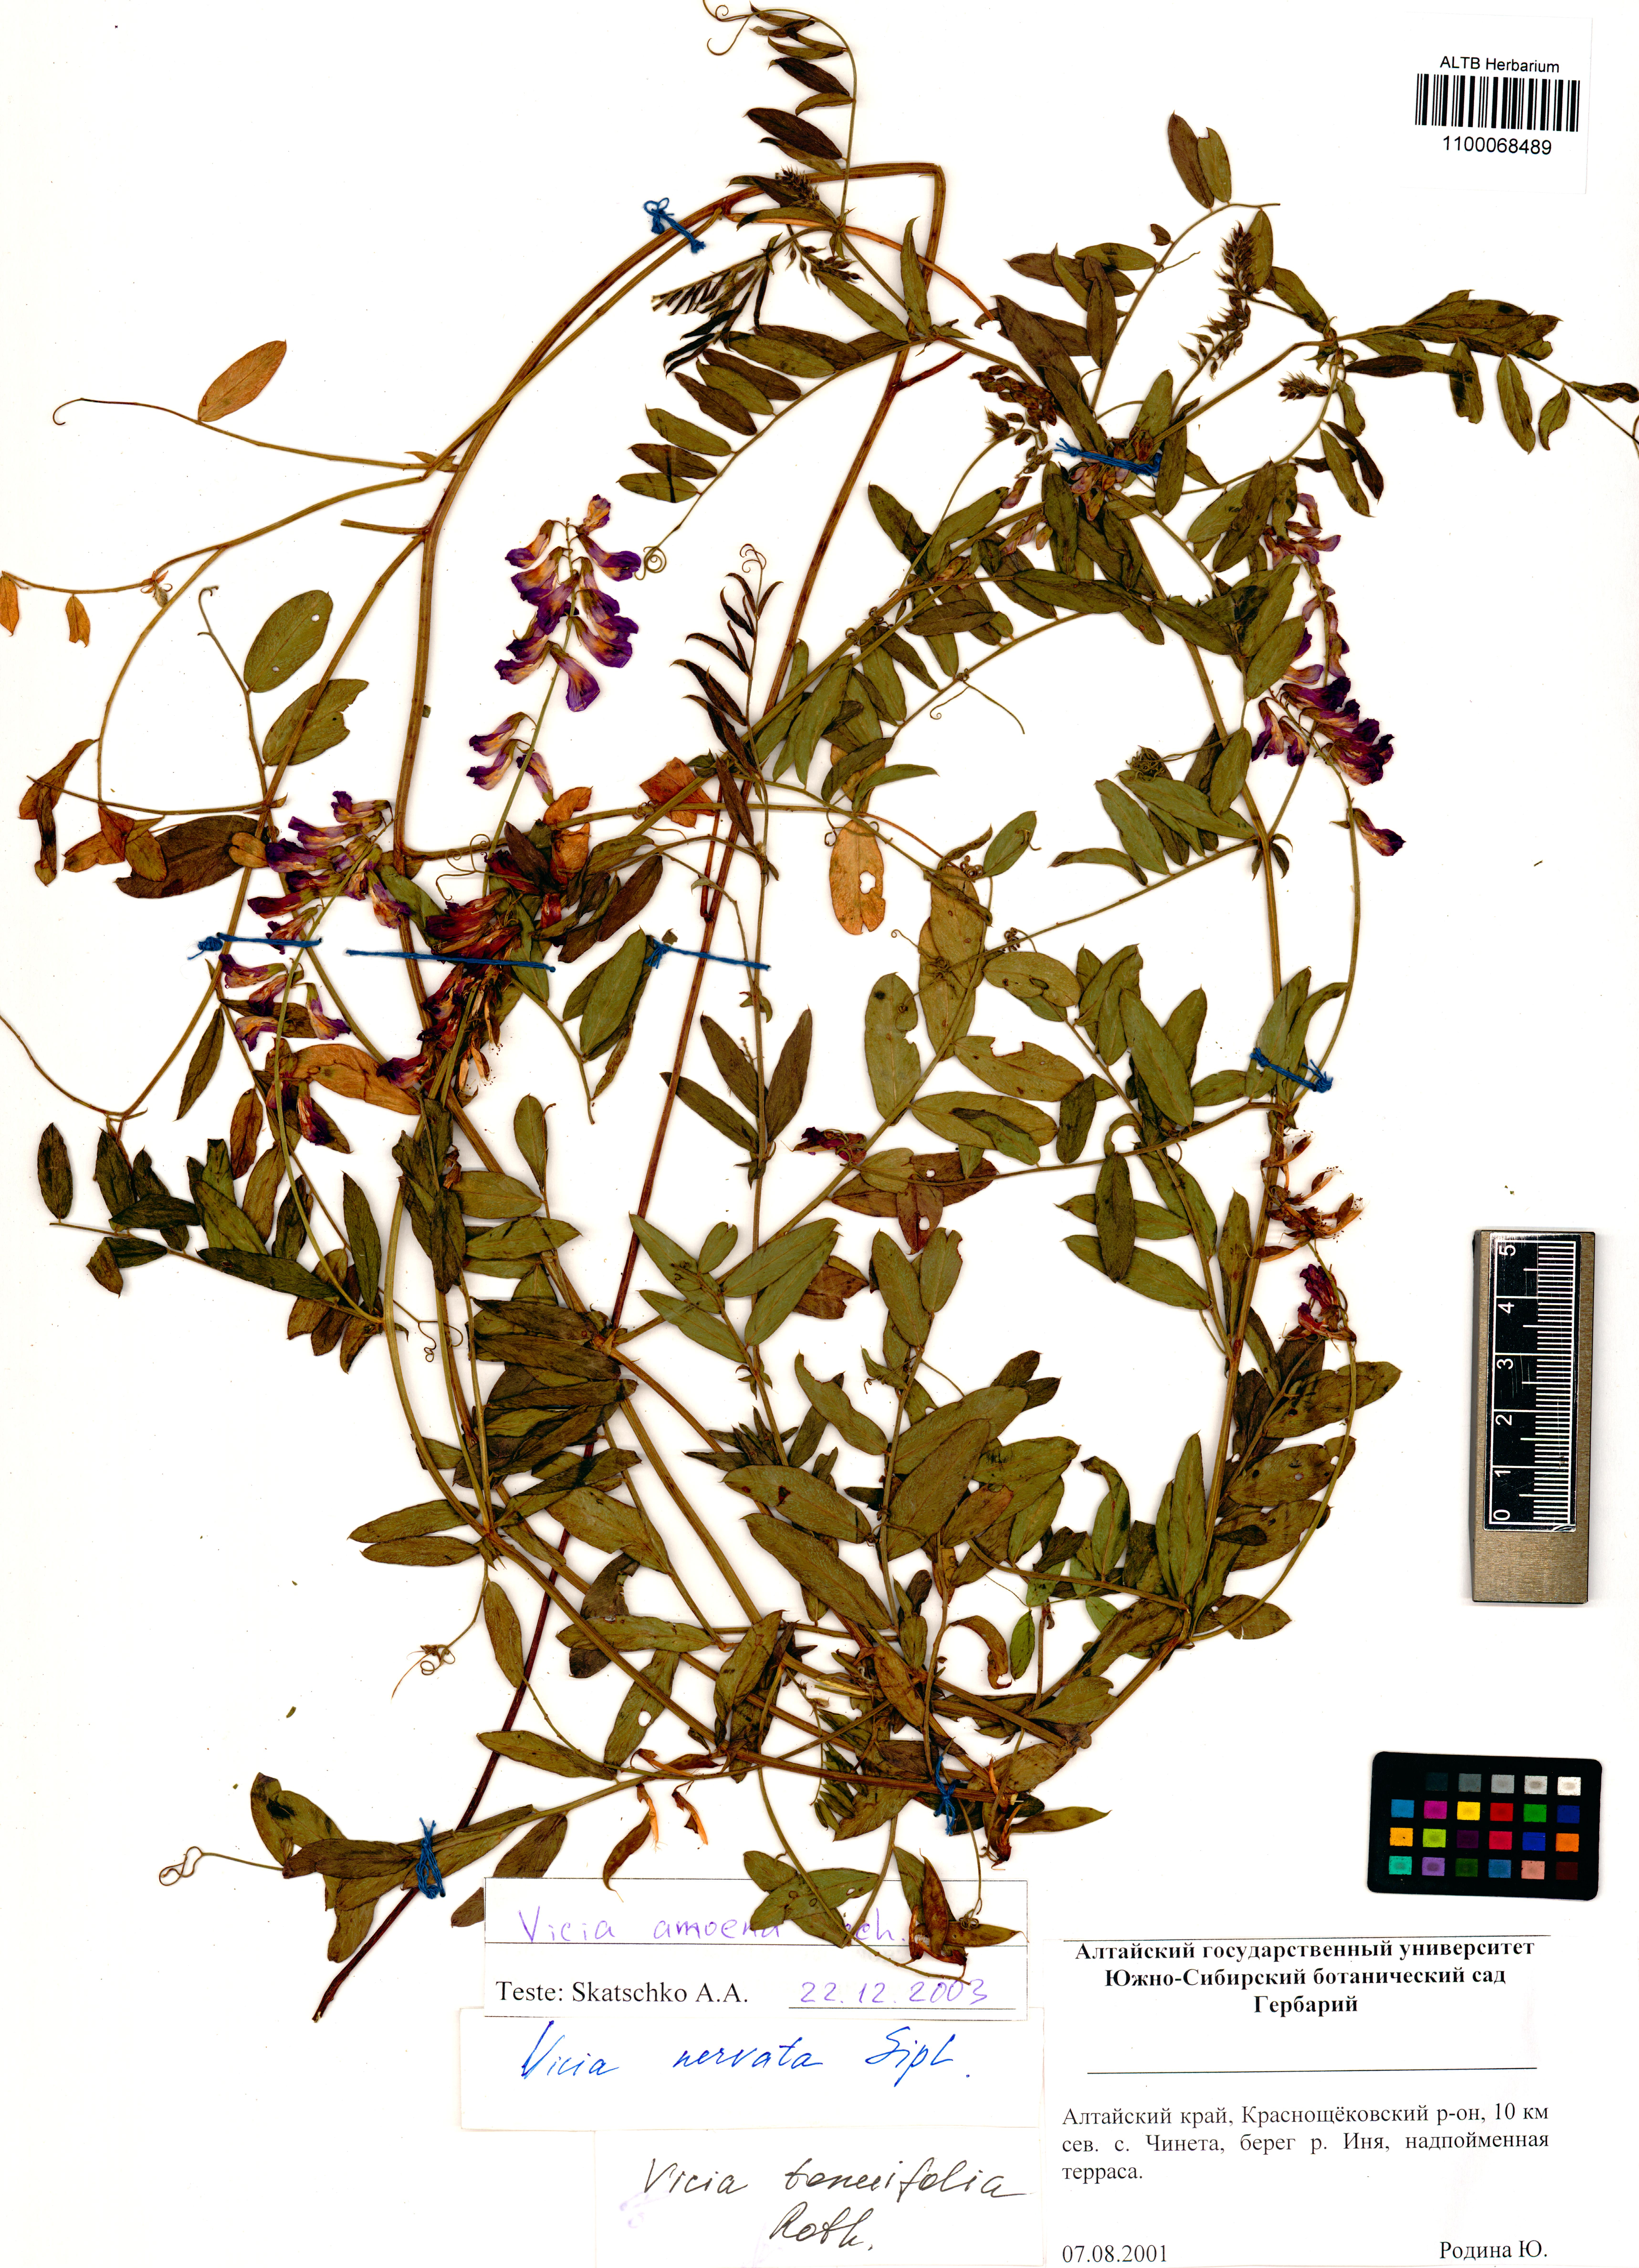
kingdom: Plantae
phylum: Tracheophyta
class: Magnoliopsida
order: Fabales
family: Fabaceae
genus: Vicia
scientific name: Vicia amoena
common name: Cheder ebs
